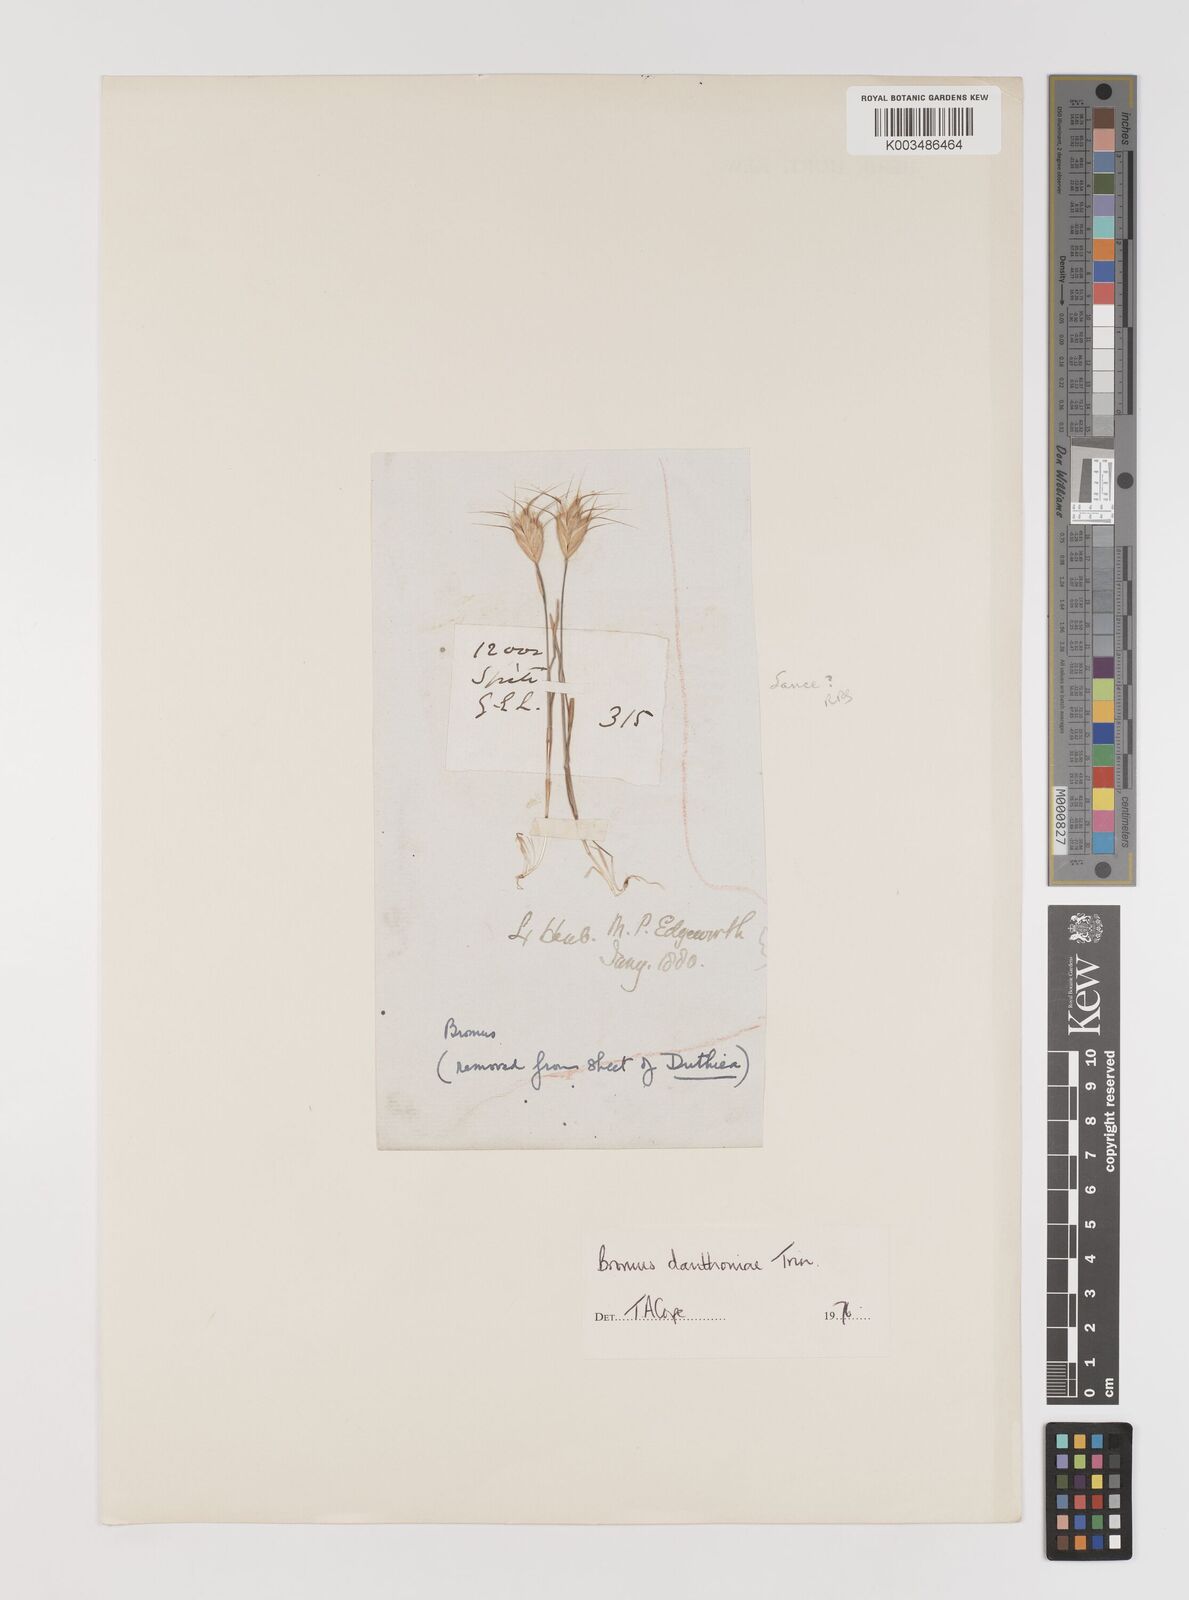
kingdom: Plantae
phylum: Tracheophyta
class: Liliopsida
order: Poales
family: Poaceae
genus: Bromus
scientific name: Bromus danthoniae
